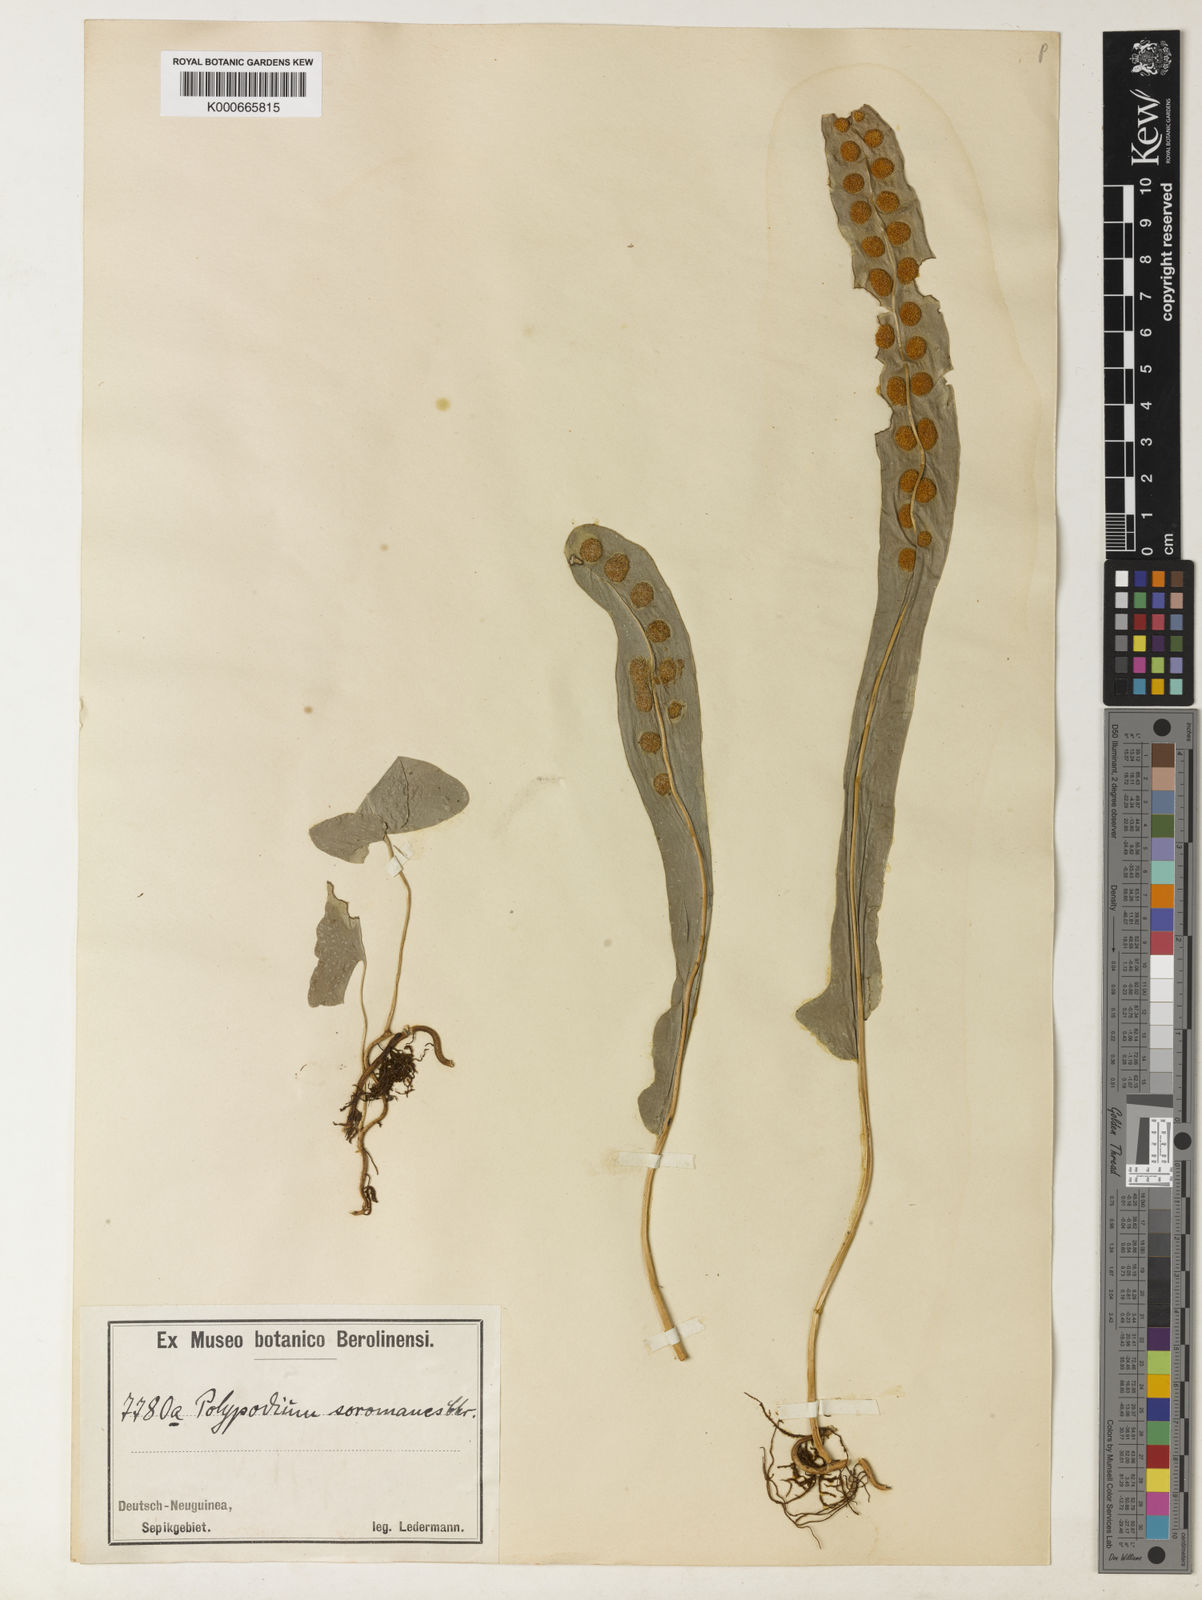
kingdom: Plantae
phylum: Tracheophyta
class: Polypodiopsida
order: Polypodiales
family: Polypodiaceae
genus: Lepisorus
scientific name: Lepisorus
